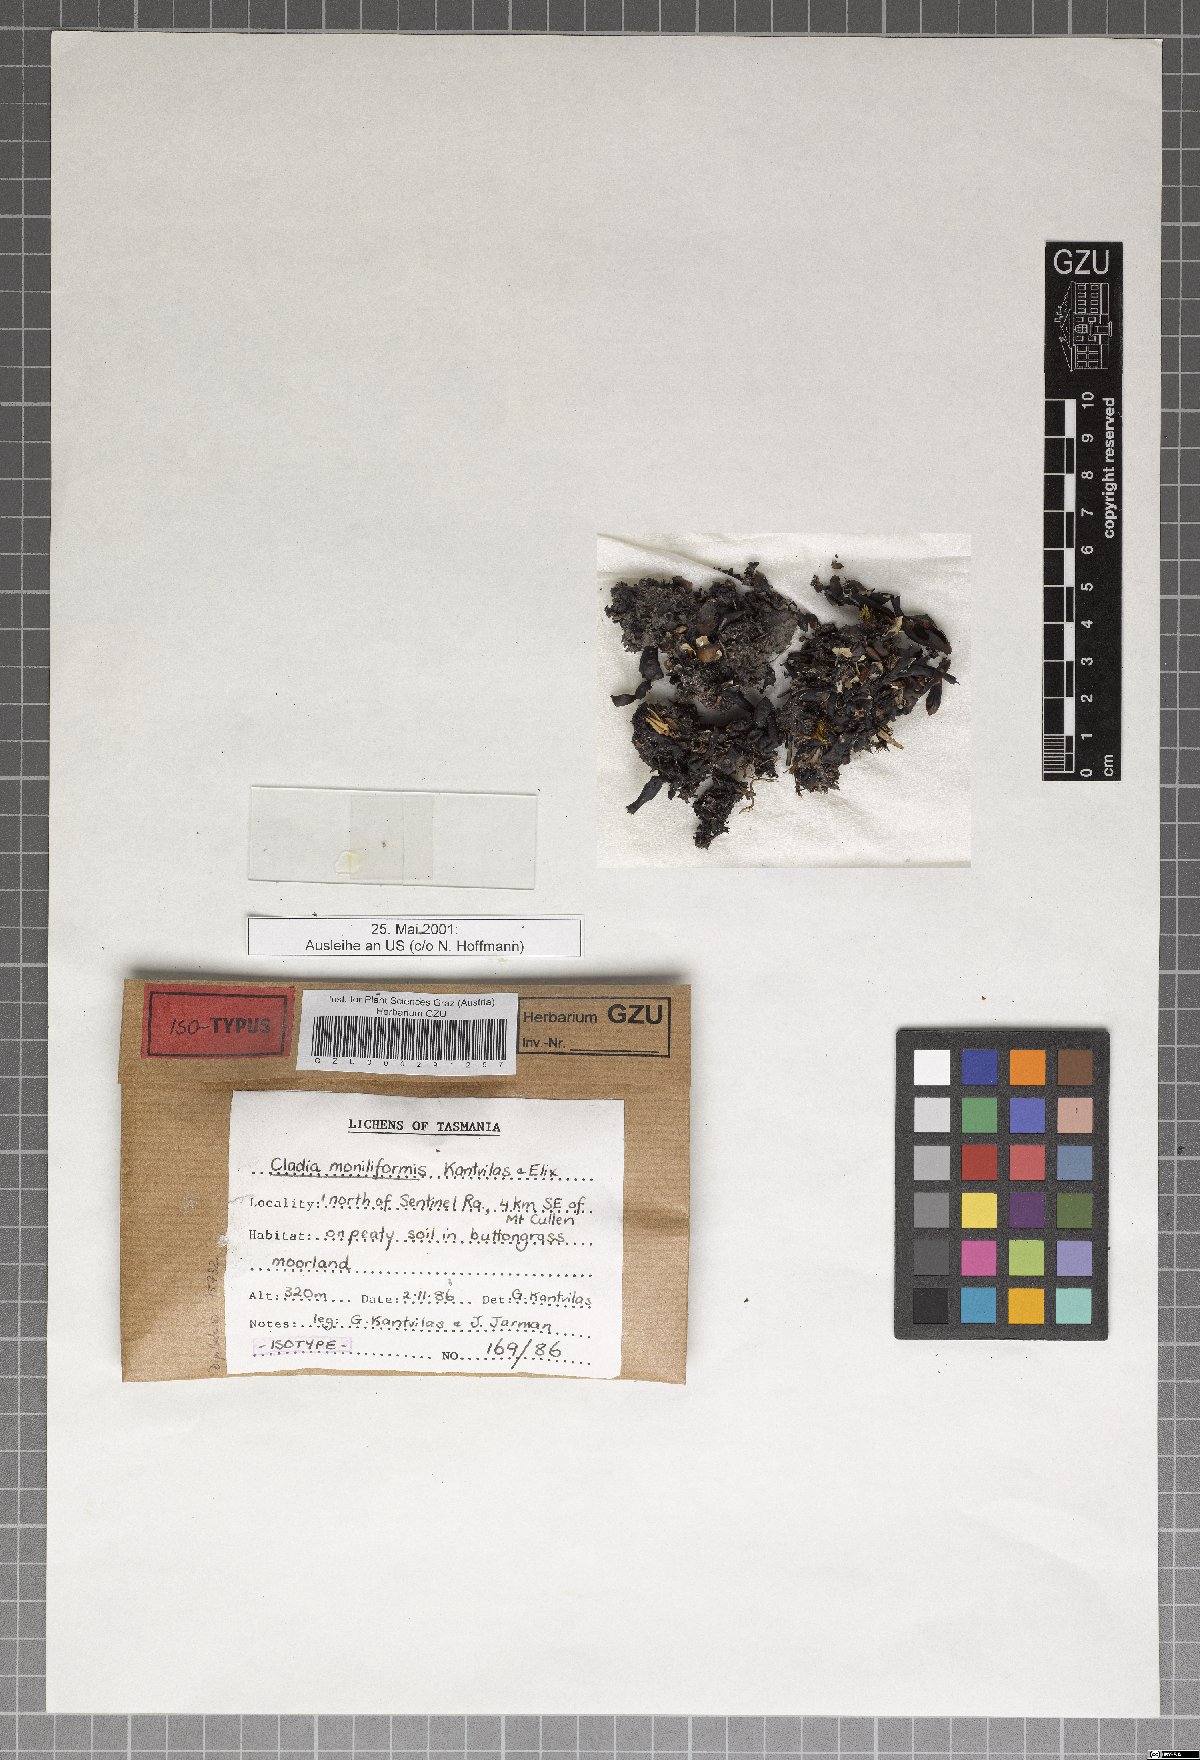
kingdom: Fungi
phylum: Ascomycota
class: Lecanoromycetes
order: Lecanorales
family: Cladoniaceae
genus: Cladia
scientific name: Cladia moniliformis
